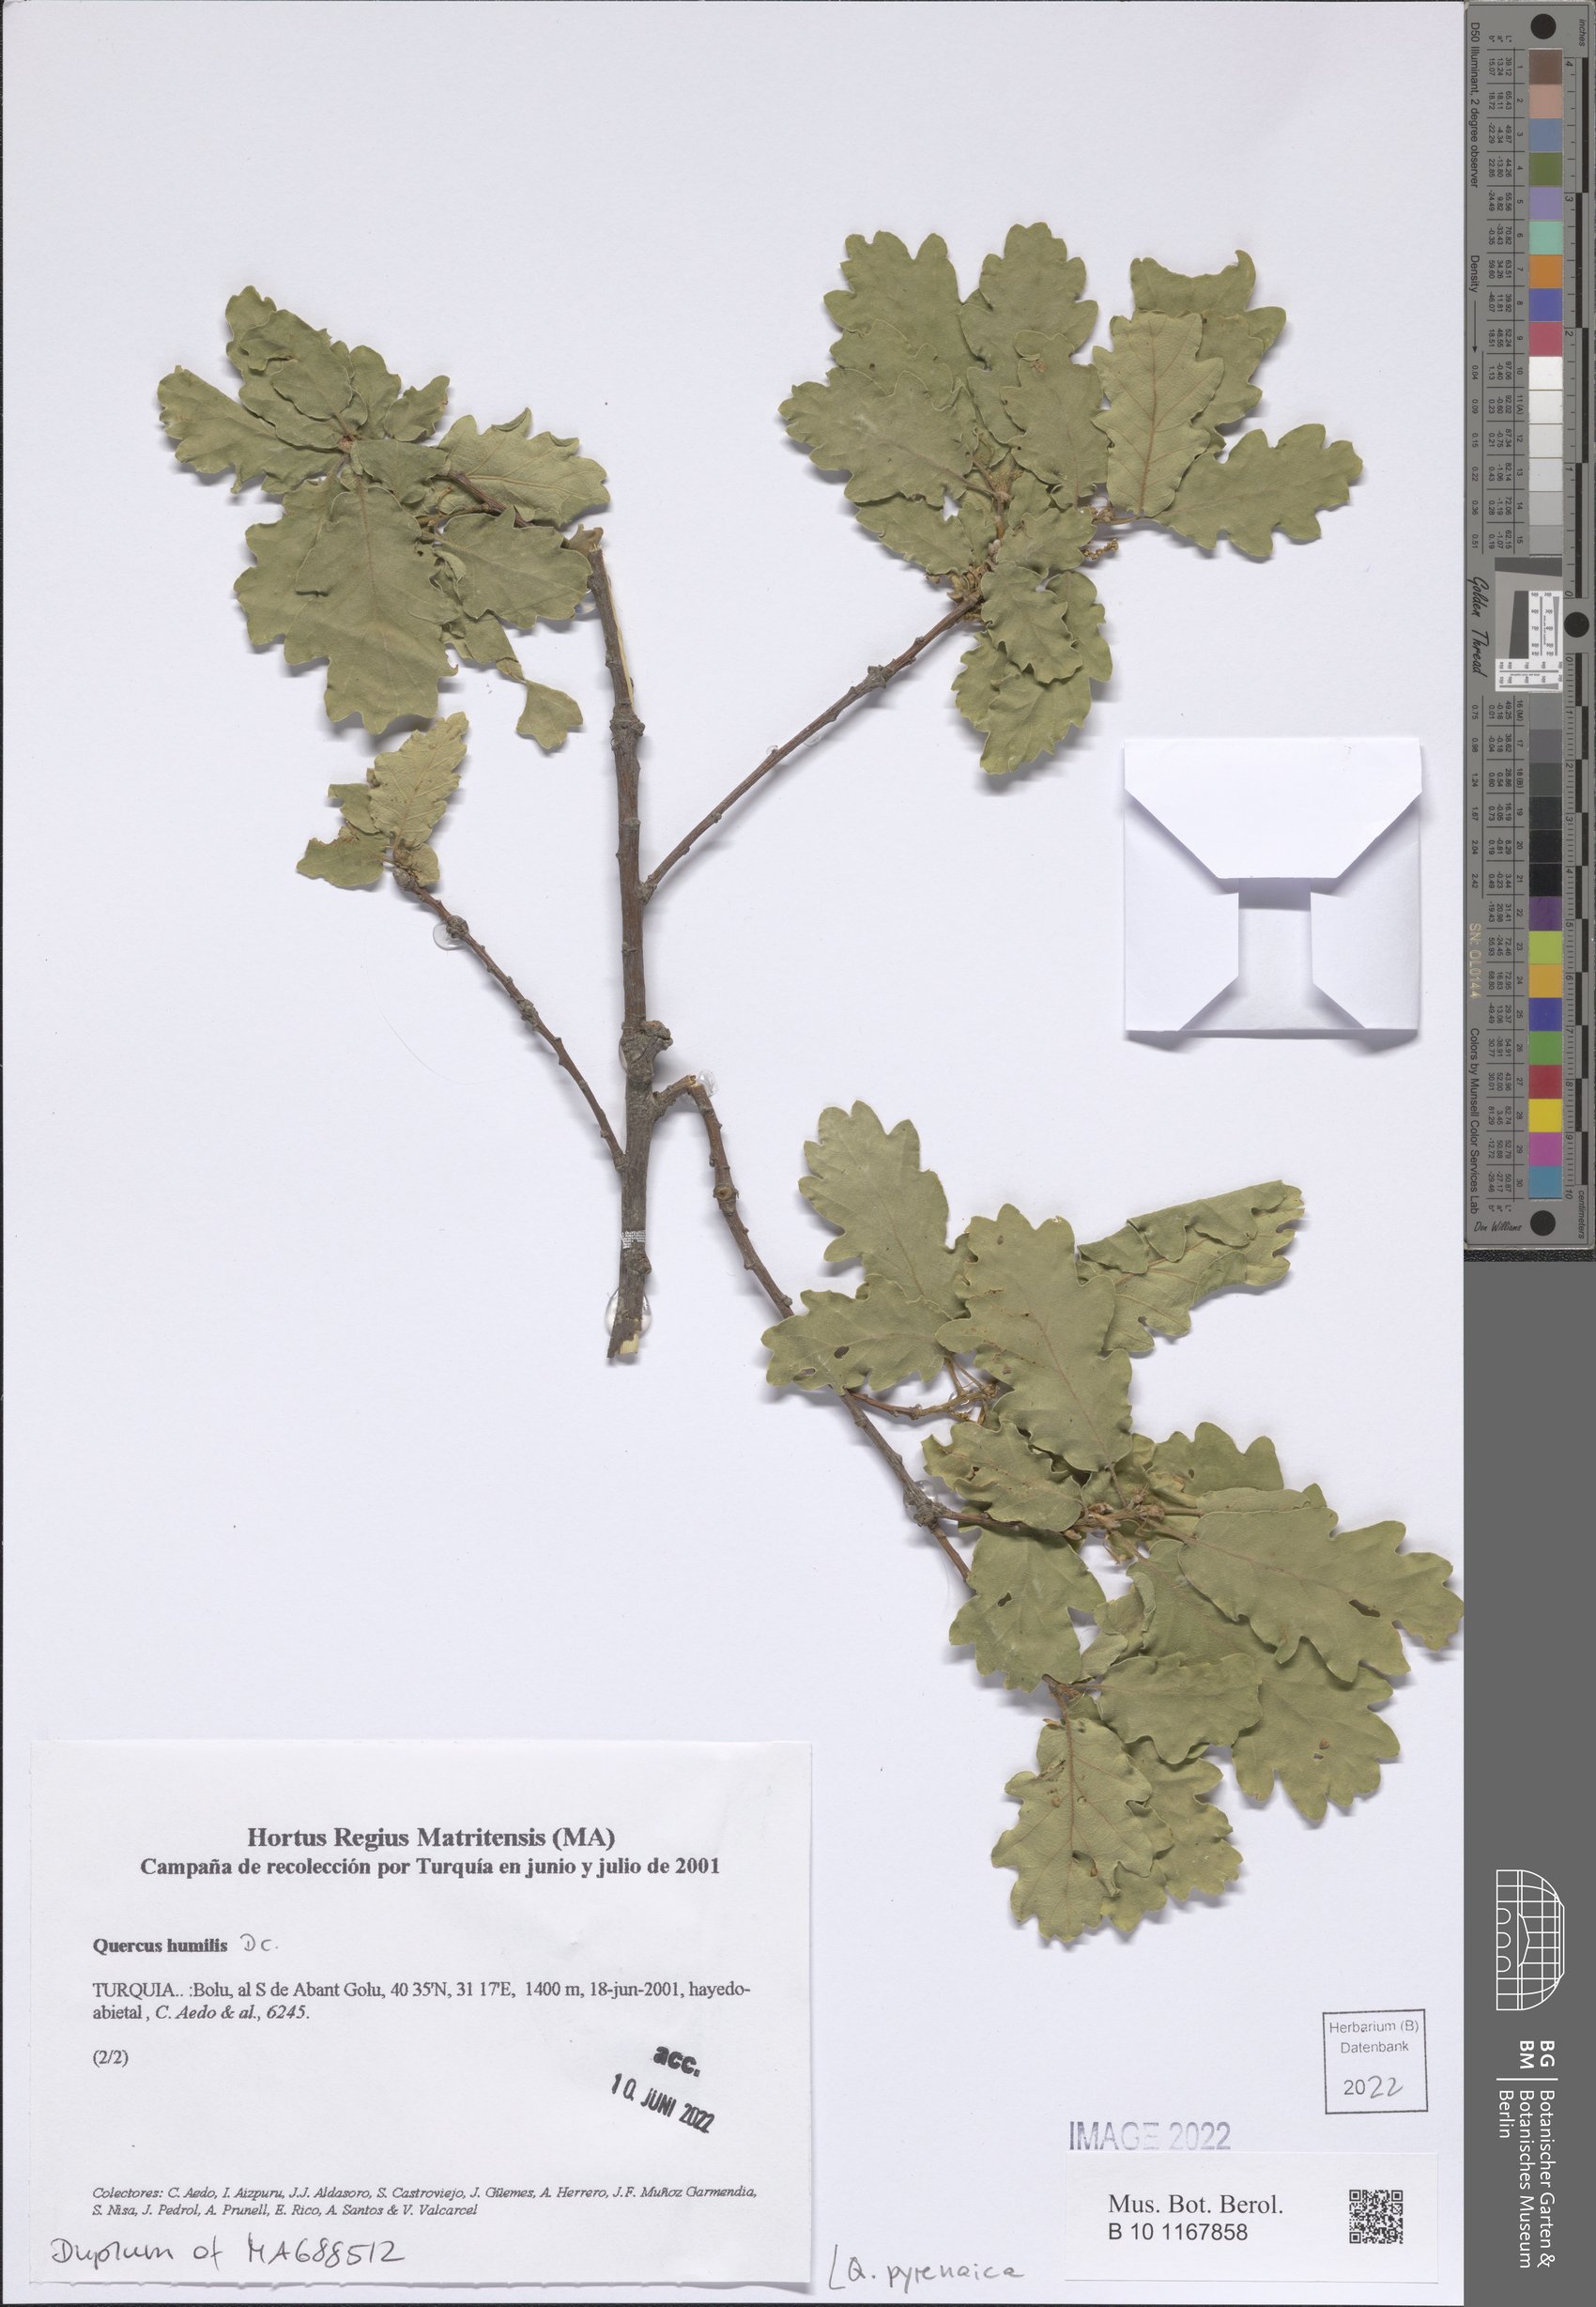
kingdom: Plantae
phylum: Tracheophyta
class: Magnoliopsida
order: Fagales
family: Fagaceae
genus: Quercus
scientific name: Quercus pyrenaica
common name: Pyrenean oak
